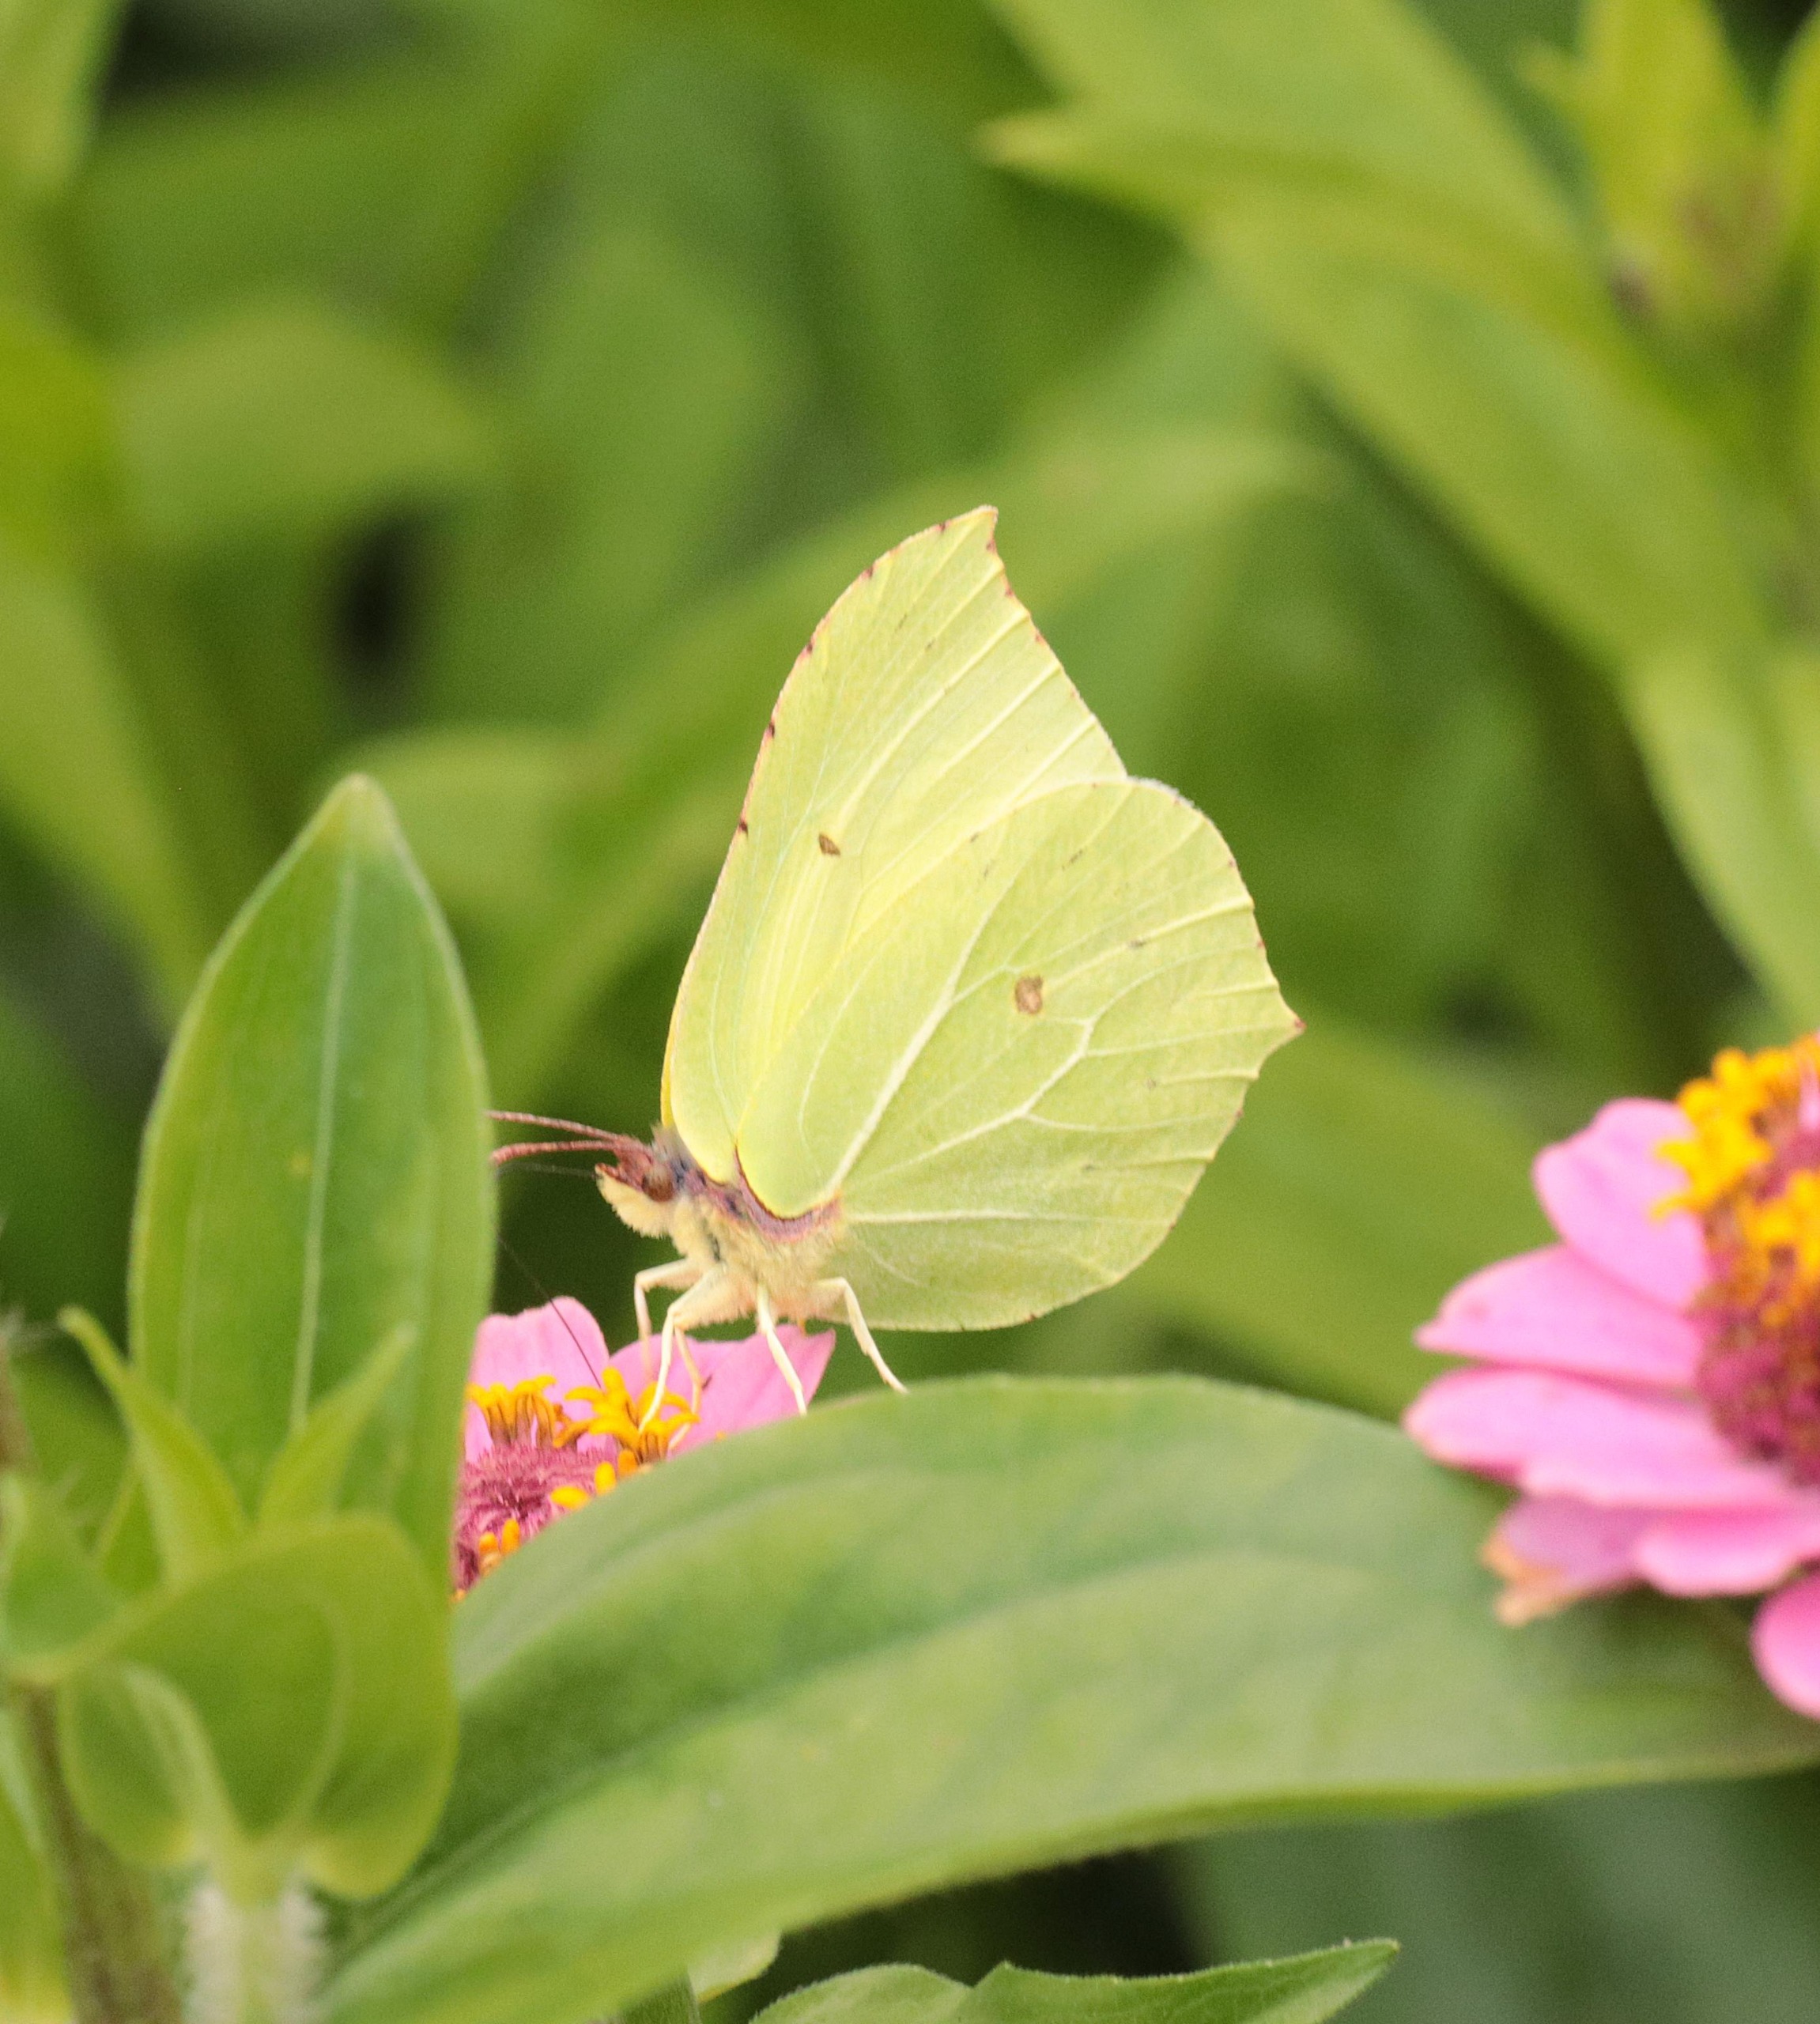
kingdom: Animalia
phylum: Arthropoda
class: Insecta
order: Lepidoptera
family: Pieridae
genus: Gonepteryx
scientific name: Gonepteryx rhamni
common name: Citronsommerfugl
